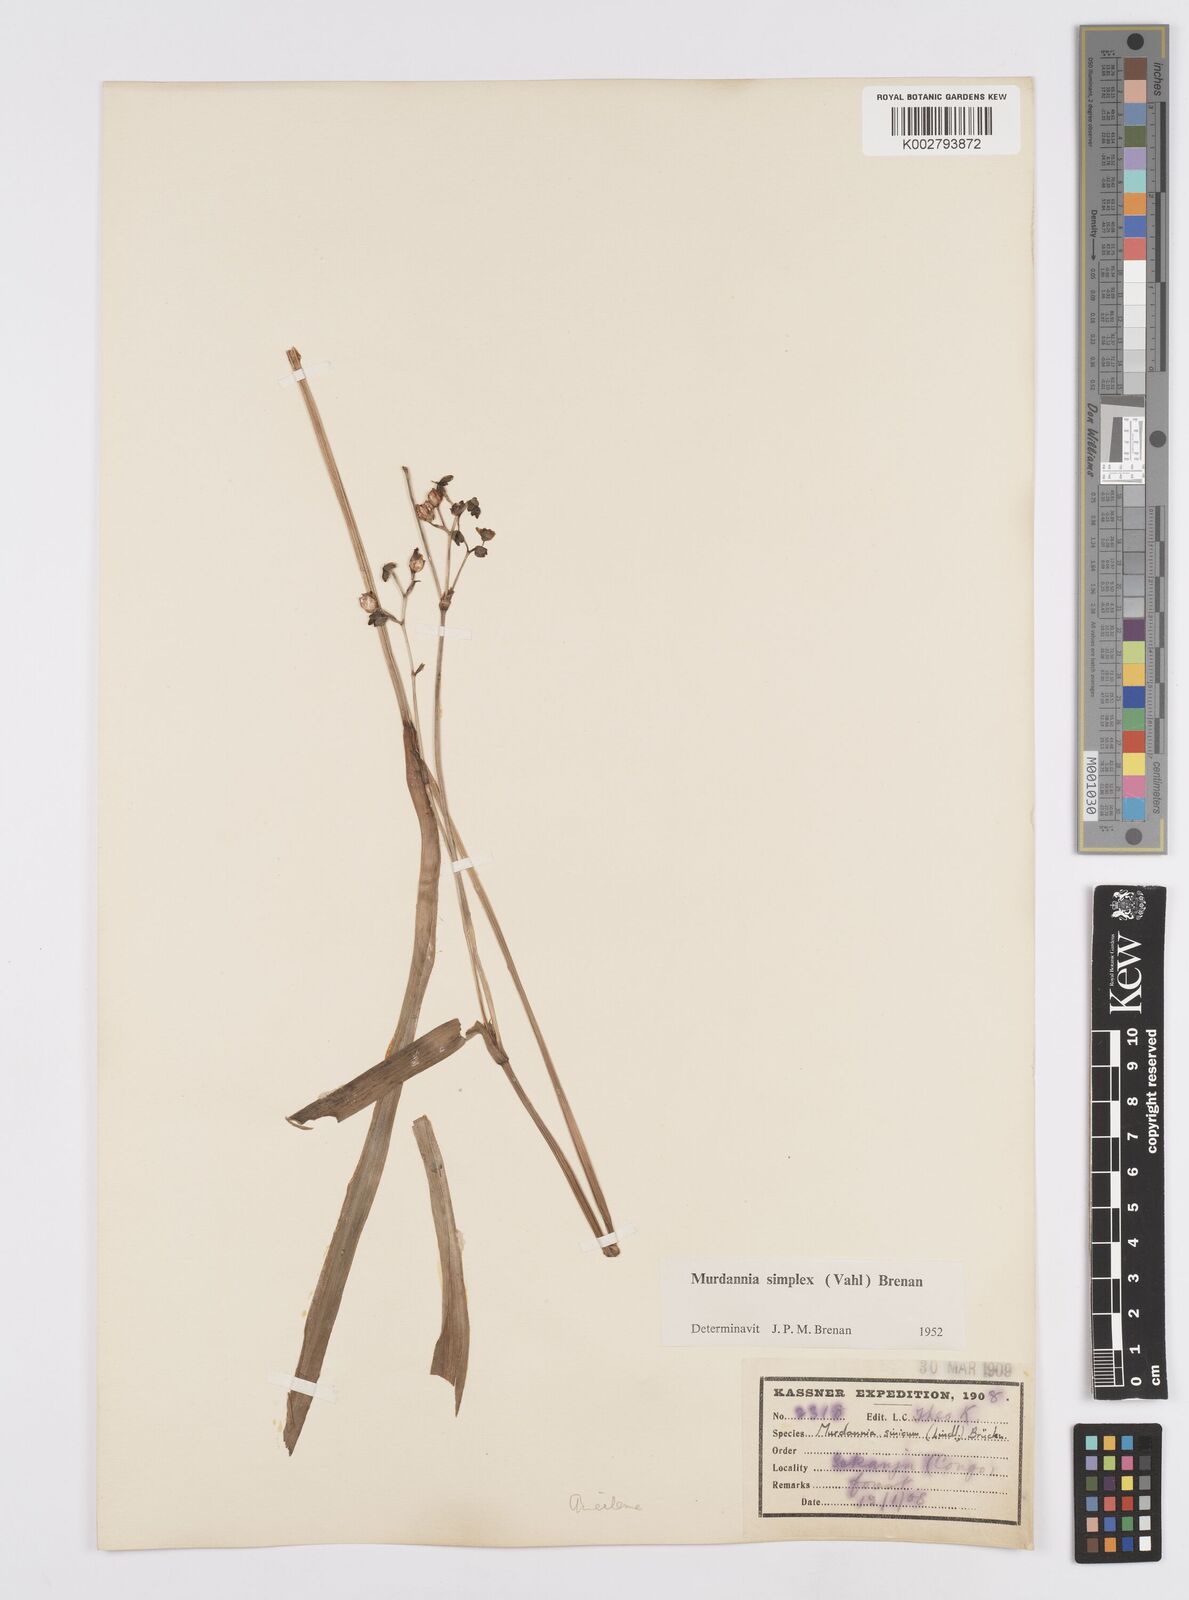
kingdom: Plantae
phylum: Tracheophyta
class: Liliopsida
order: Commelinales
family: Commelinaceae
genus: Murdannia
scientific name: Murdannia simplex
